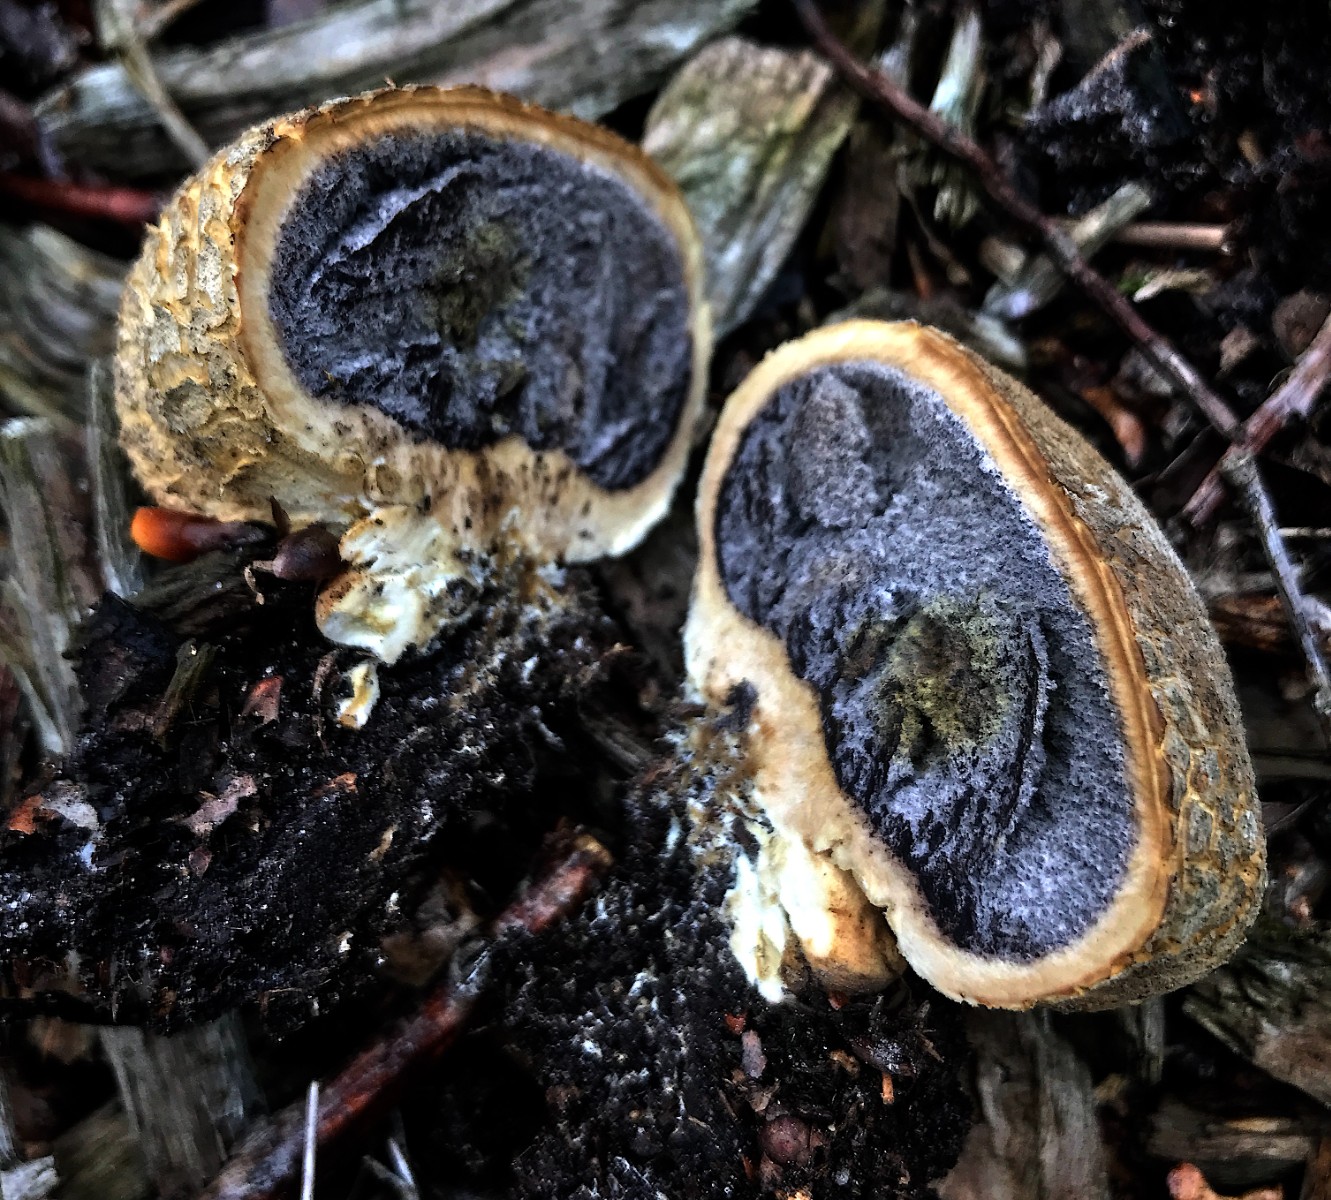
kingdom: Fungi
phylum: Basidiomycota
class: Agaricomycetes
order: Boletales
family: Sclerodermataceae
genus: Scleroderma
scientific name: Scleroderma citrinum
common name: almindelig bruskbold
